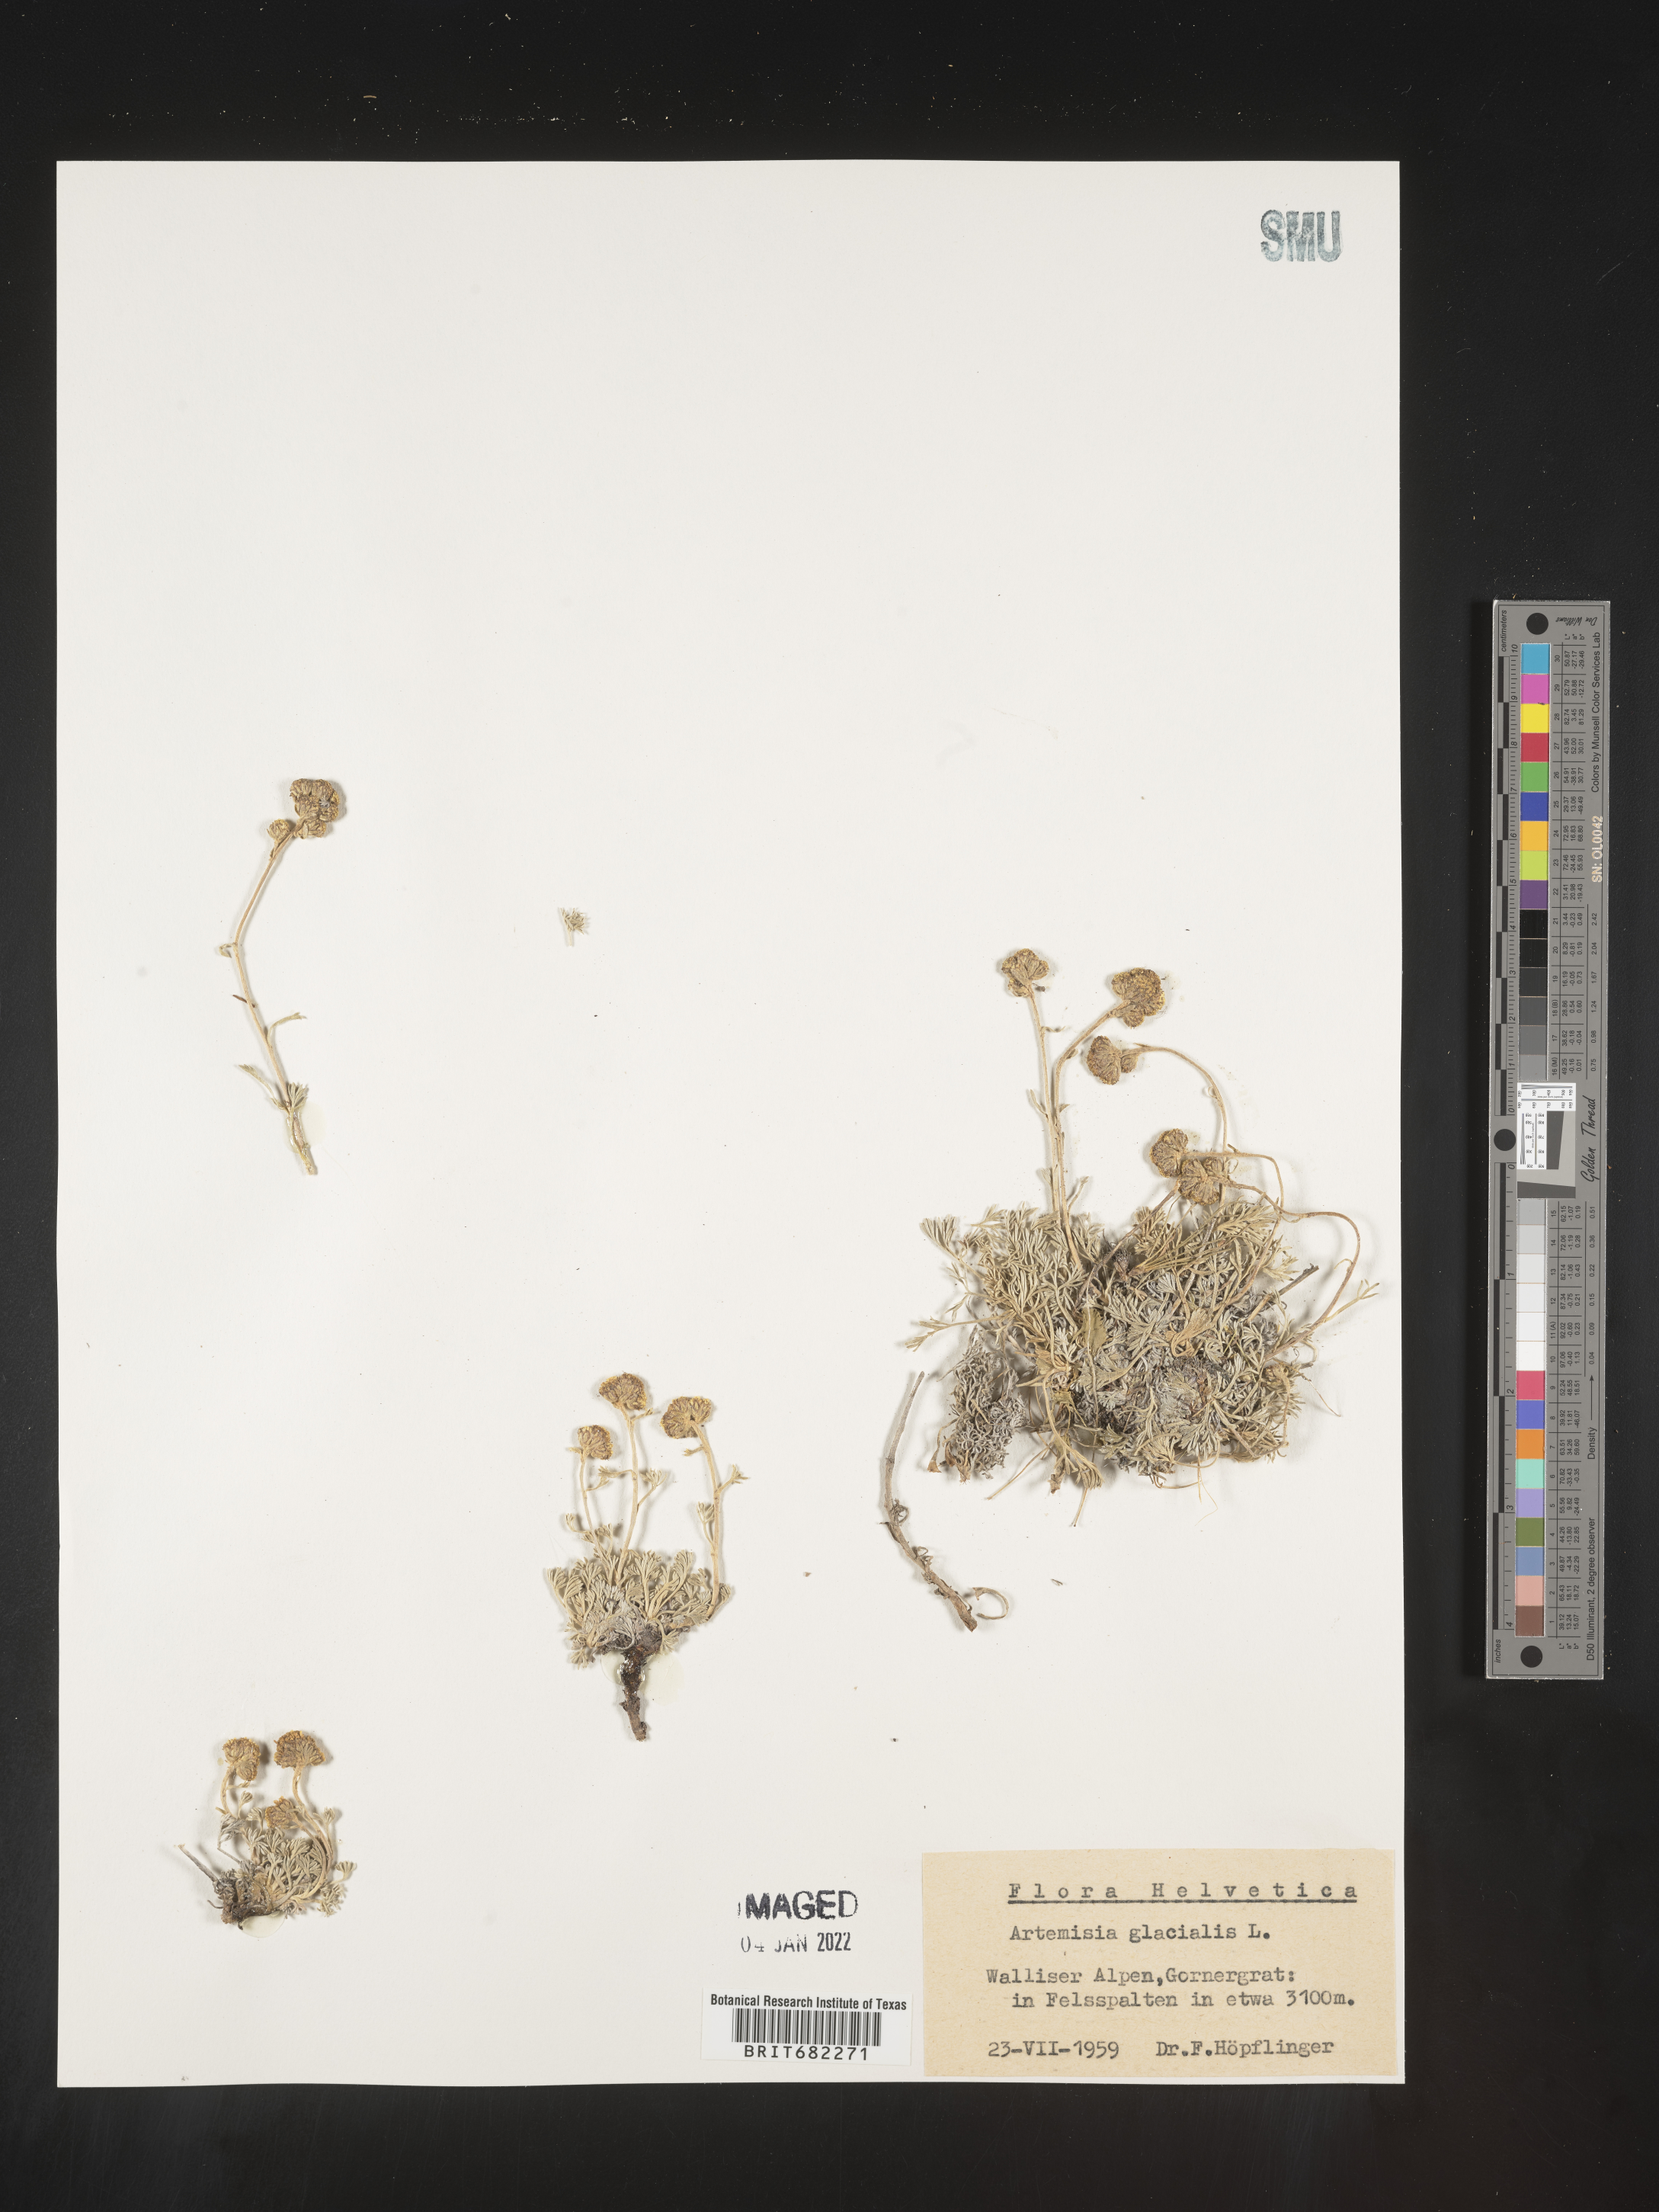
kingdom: Plantae
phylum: Tracheophyta
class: Magnoliopsida
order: Asterales
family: Asteraceae
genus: Artemisia
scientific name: Artemisia
